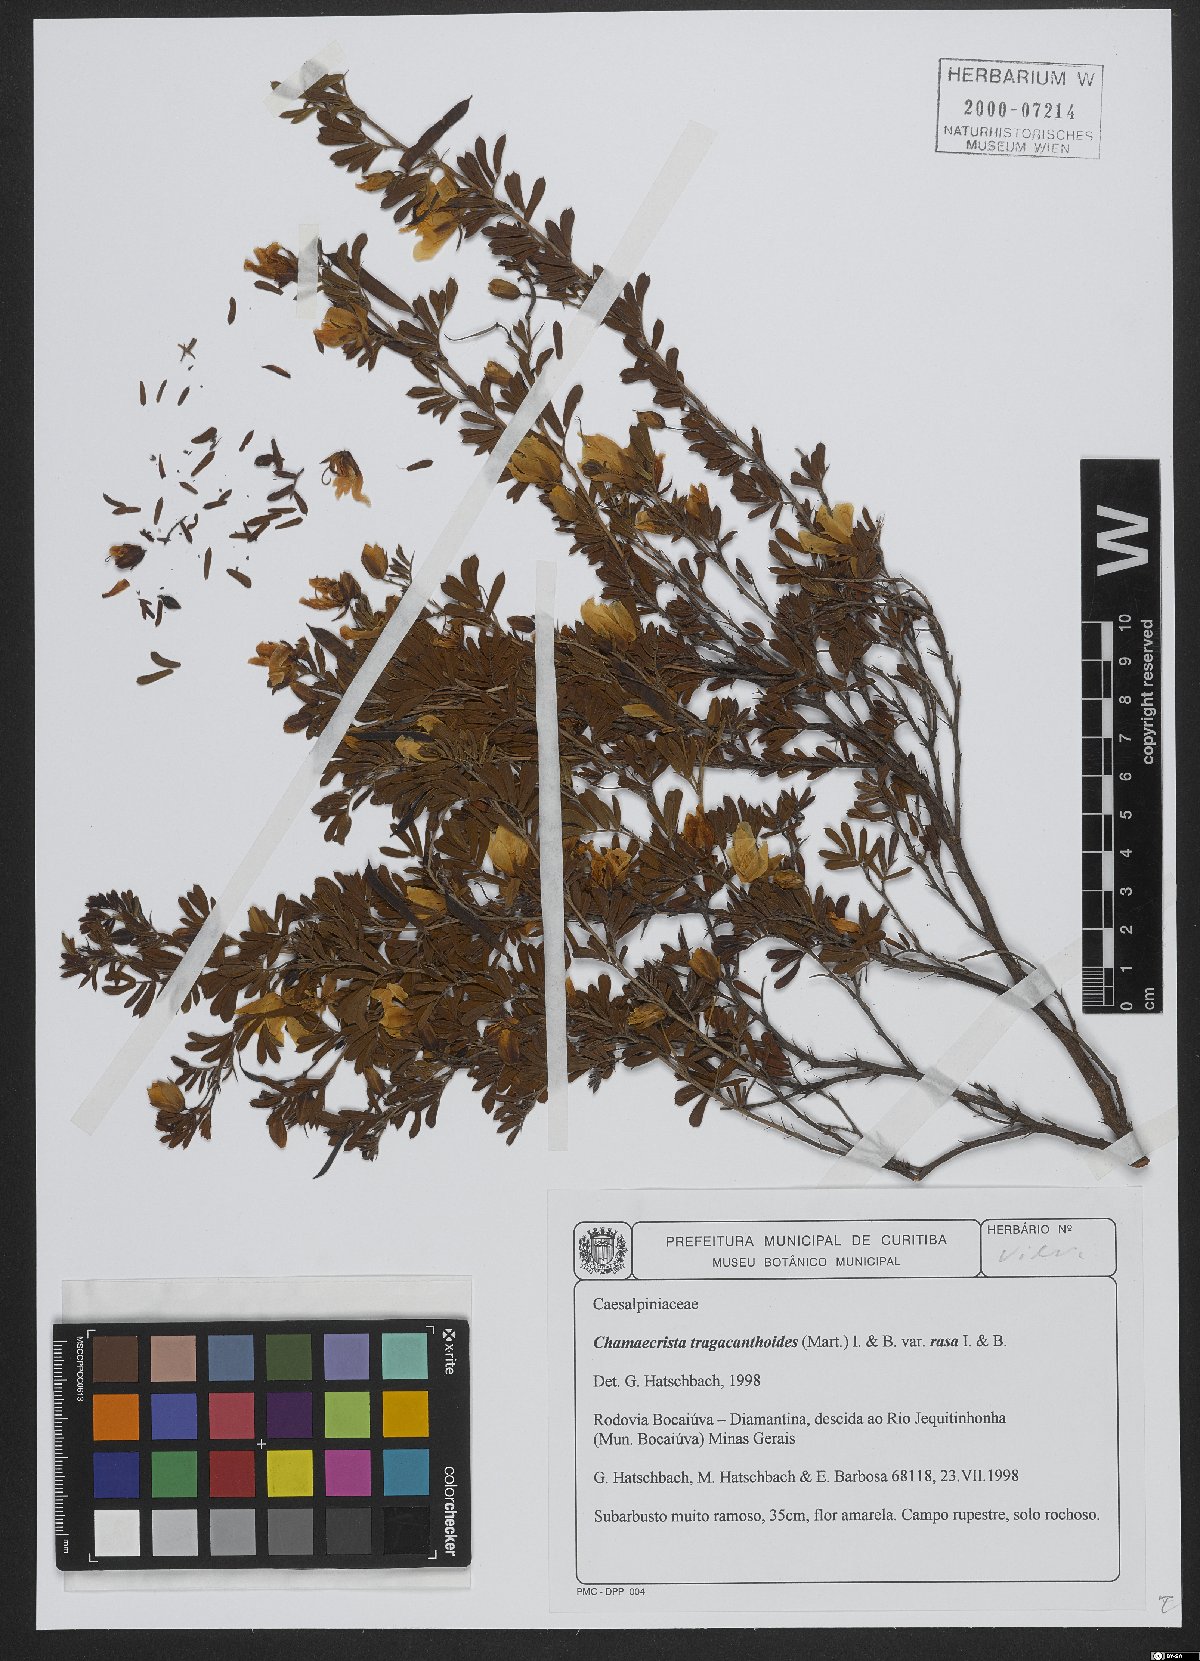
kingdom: Plantae
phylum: Tracheophyta
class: Magnoliopsida
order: Fabales
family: Fabaceae
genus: Chamaecrista
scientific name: Chamaecrista tragacanthoides
